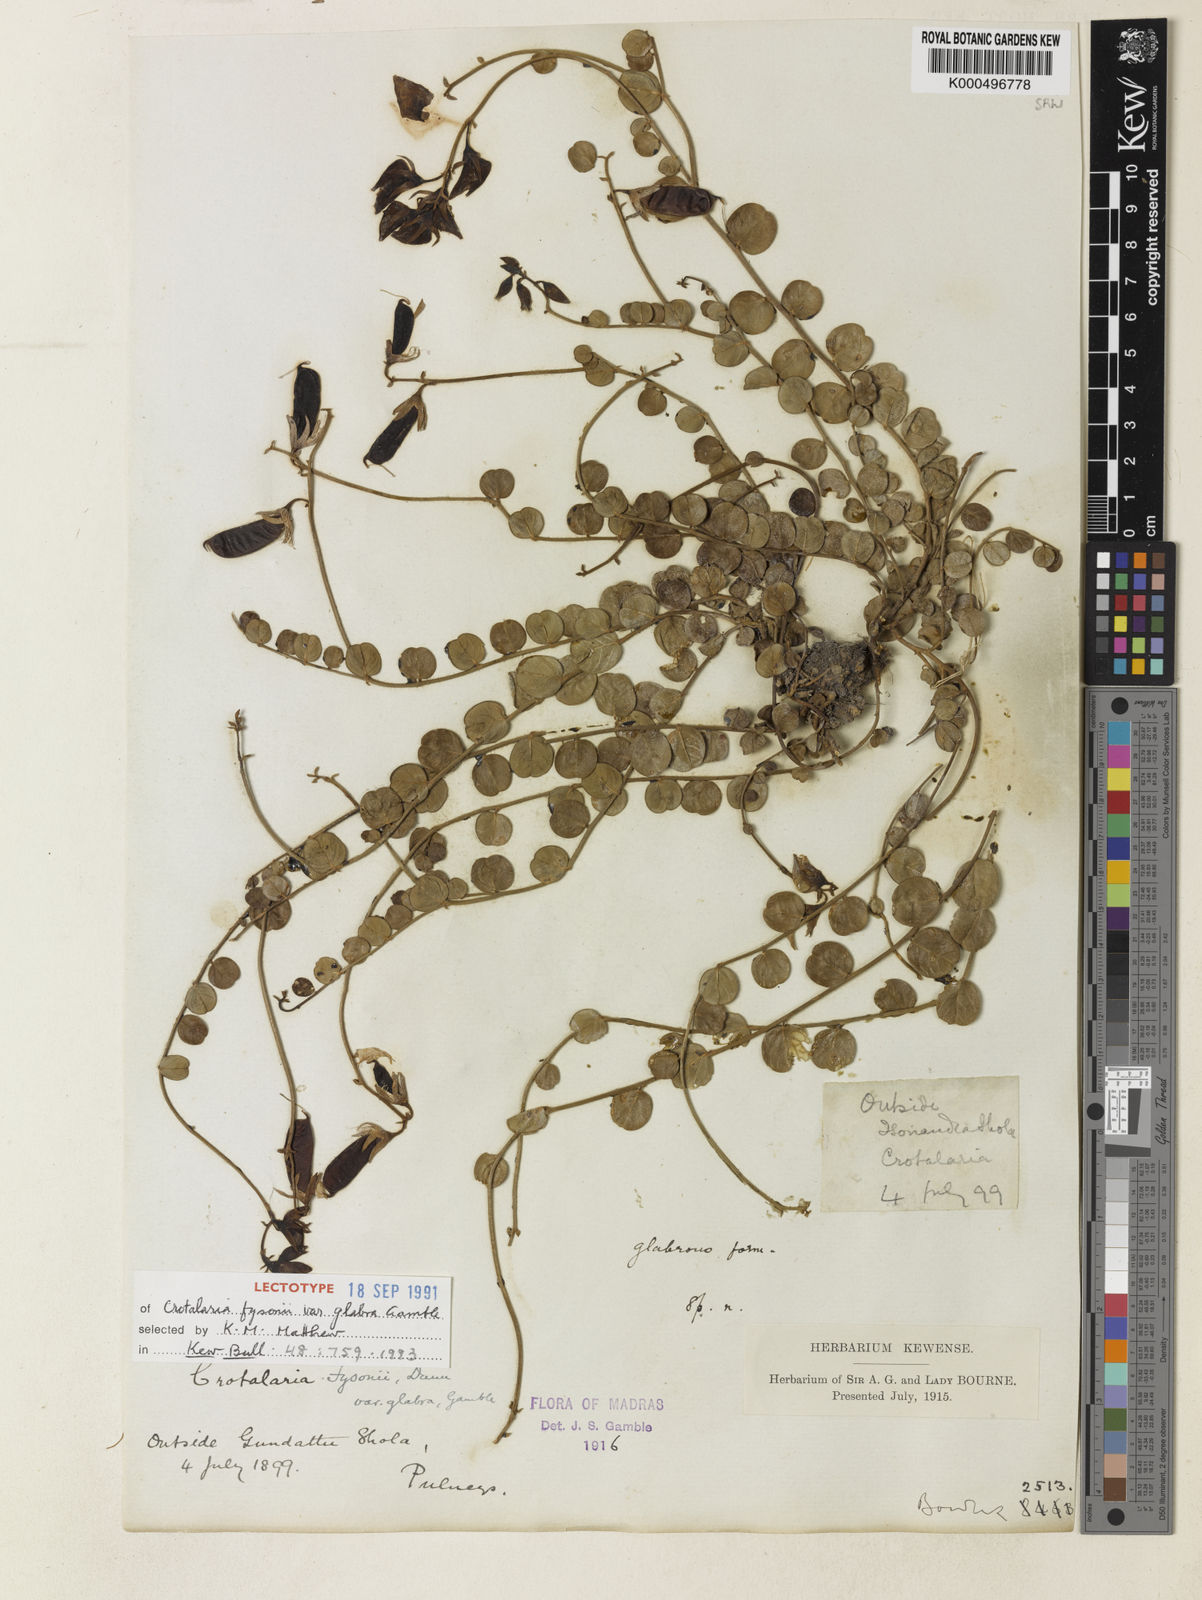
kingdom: Plantae
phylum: Tracheophyta
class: Magnoliopsida
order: Fabales
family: Fabaceae
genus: Crotalaria
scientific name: Crotalaria fysonii
